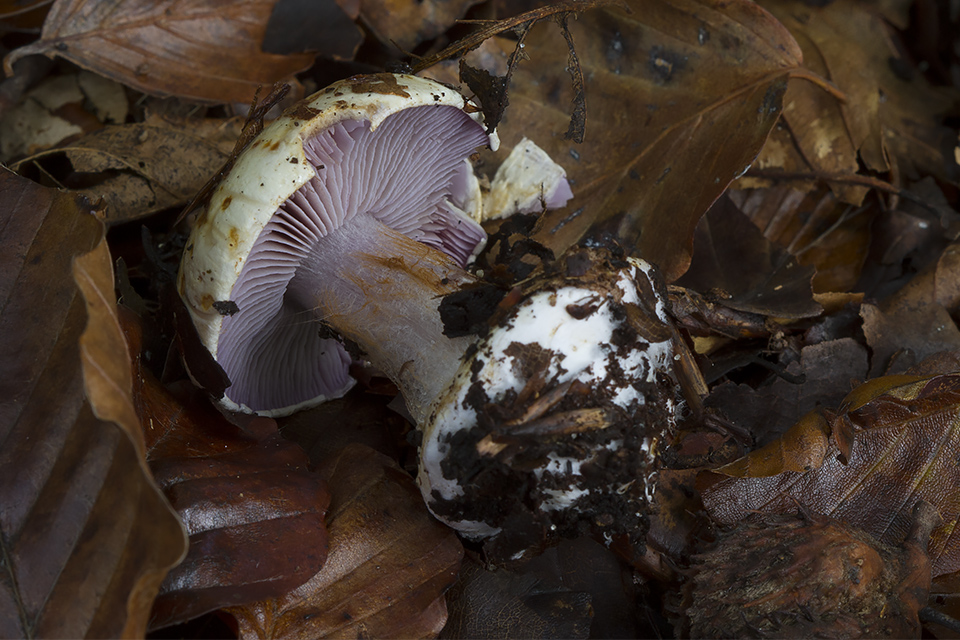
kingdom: Fungi
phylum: Basidiomycota
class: Agaricomycetes
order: Agaricales
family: Cortinariaceae
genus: Calonarius
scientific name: Calonarius catharinae
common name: Katrines slørhat
